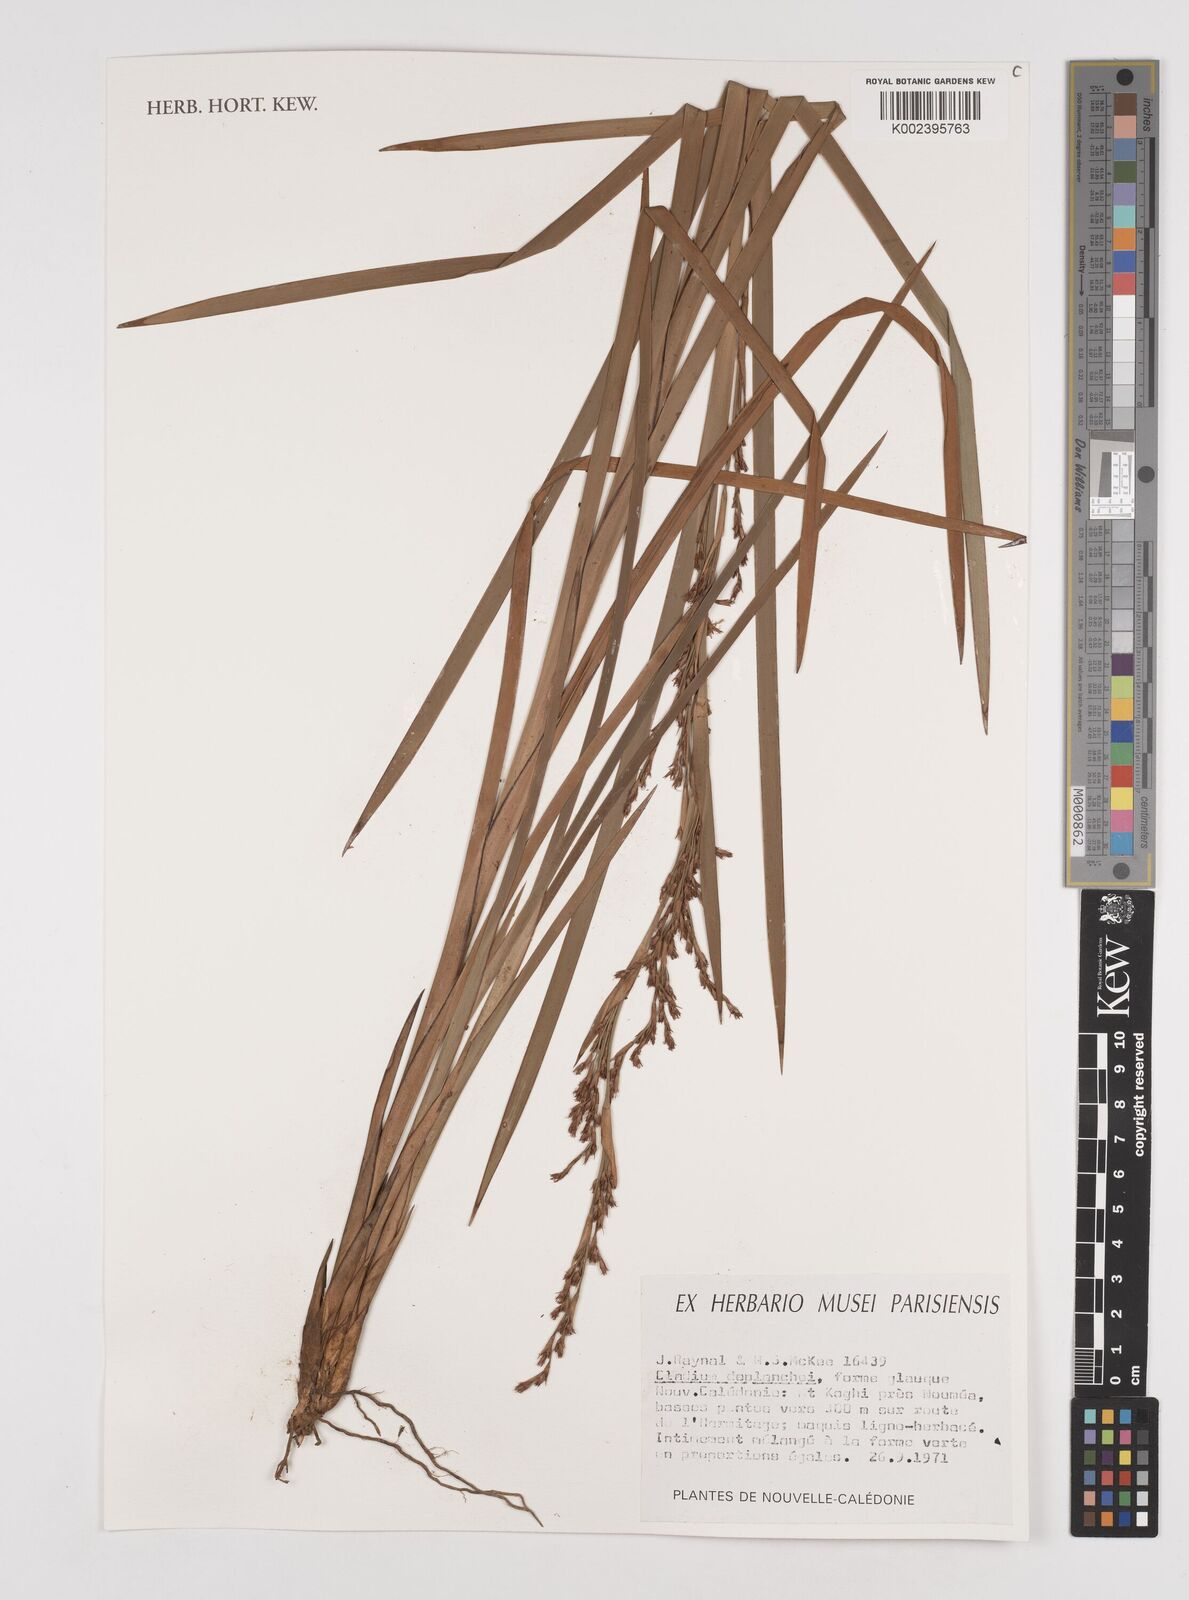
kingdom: Plantae
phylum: Tracheophyta
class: Liliopsida
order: Poales
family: Cyperaceae
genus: Machaerina
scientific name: Machaerina deplanchei
